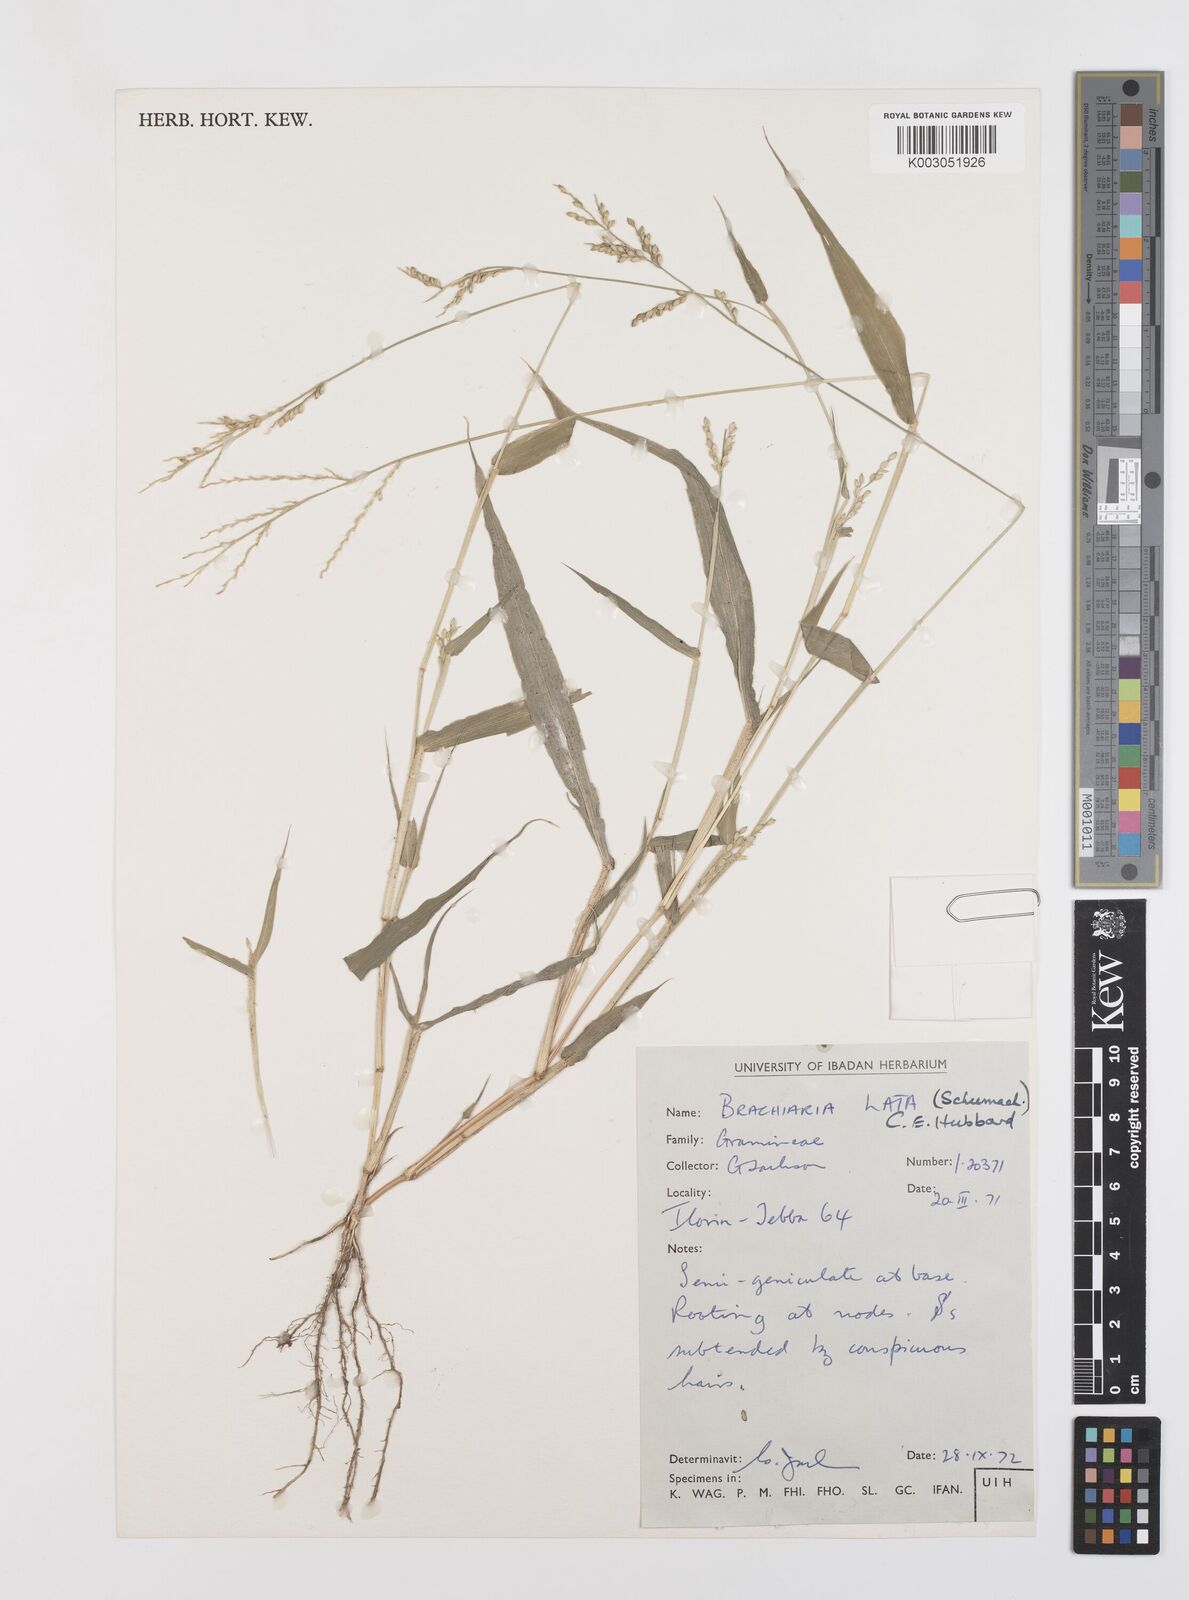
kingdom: Plantae
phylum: Tracheophyta
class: Liliopsida
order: Poales
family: Poaceae
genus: Urochloa
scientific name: Urochloa lata
